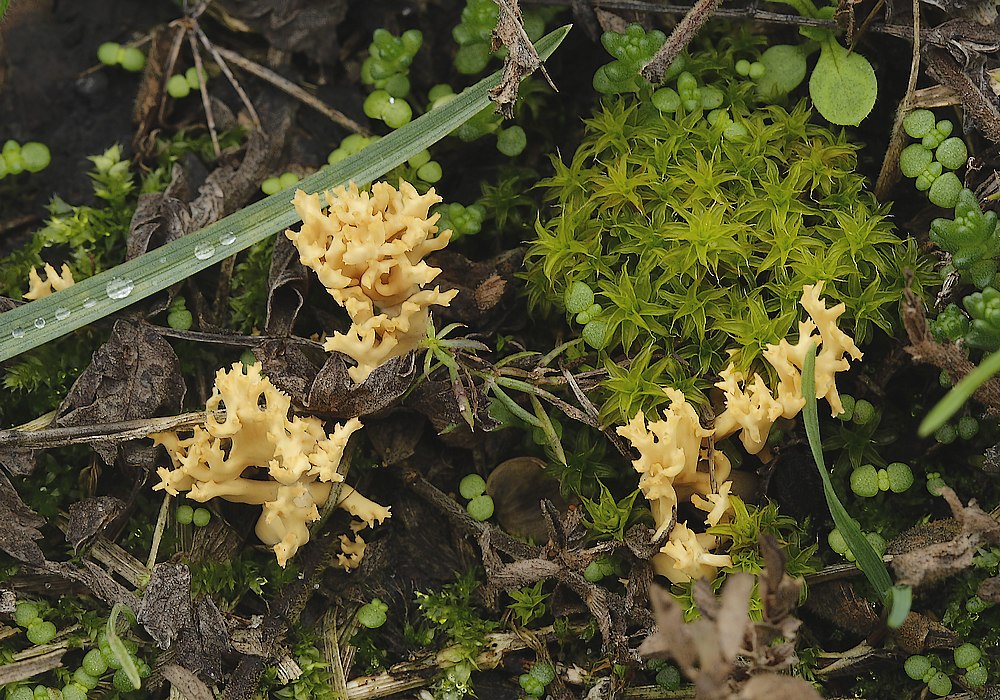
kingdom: Fungi
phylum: Basidiomycota
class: Agaricomycetes
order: Gomphales
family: Gomphaceae
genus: Phaeoclavulina
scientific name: Phaeoclavulina flaccida
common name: spinkel koralsvamp
